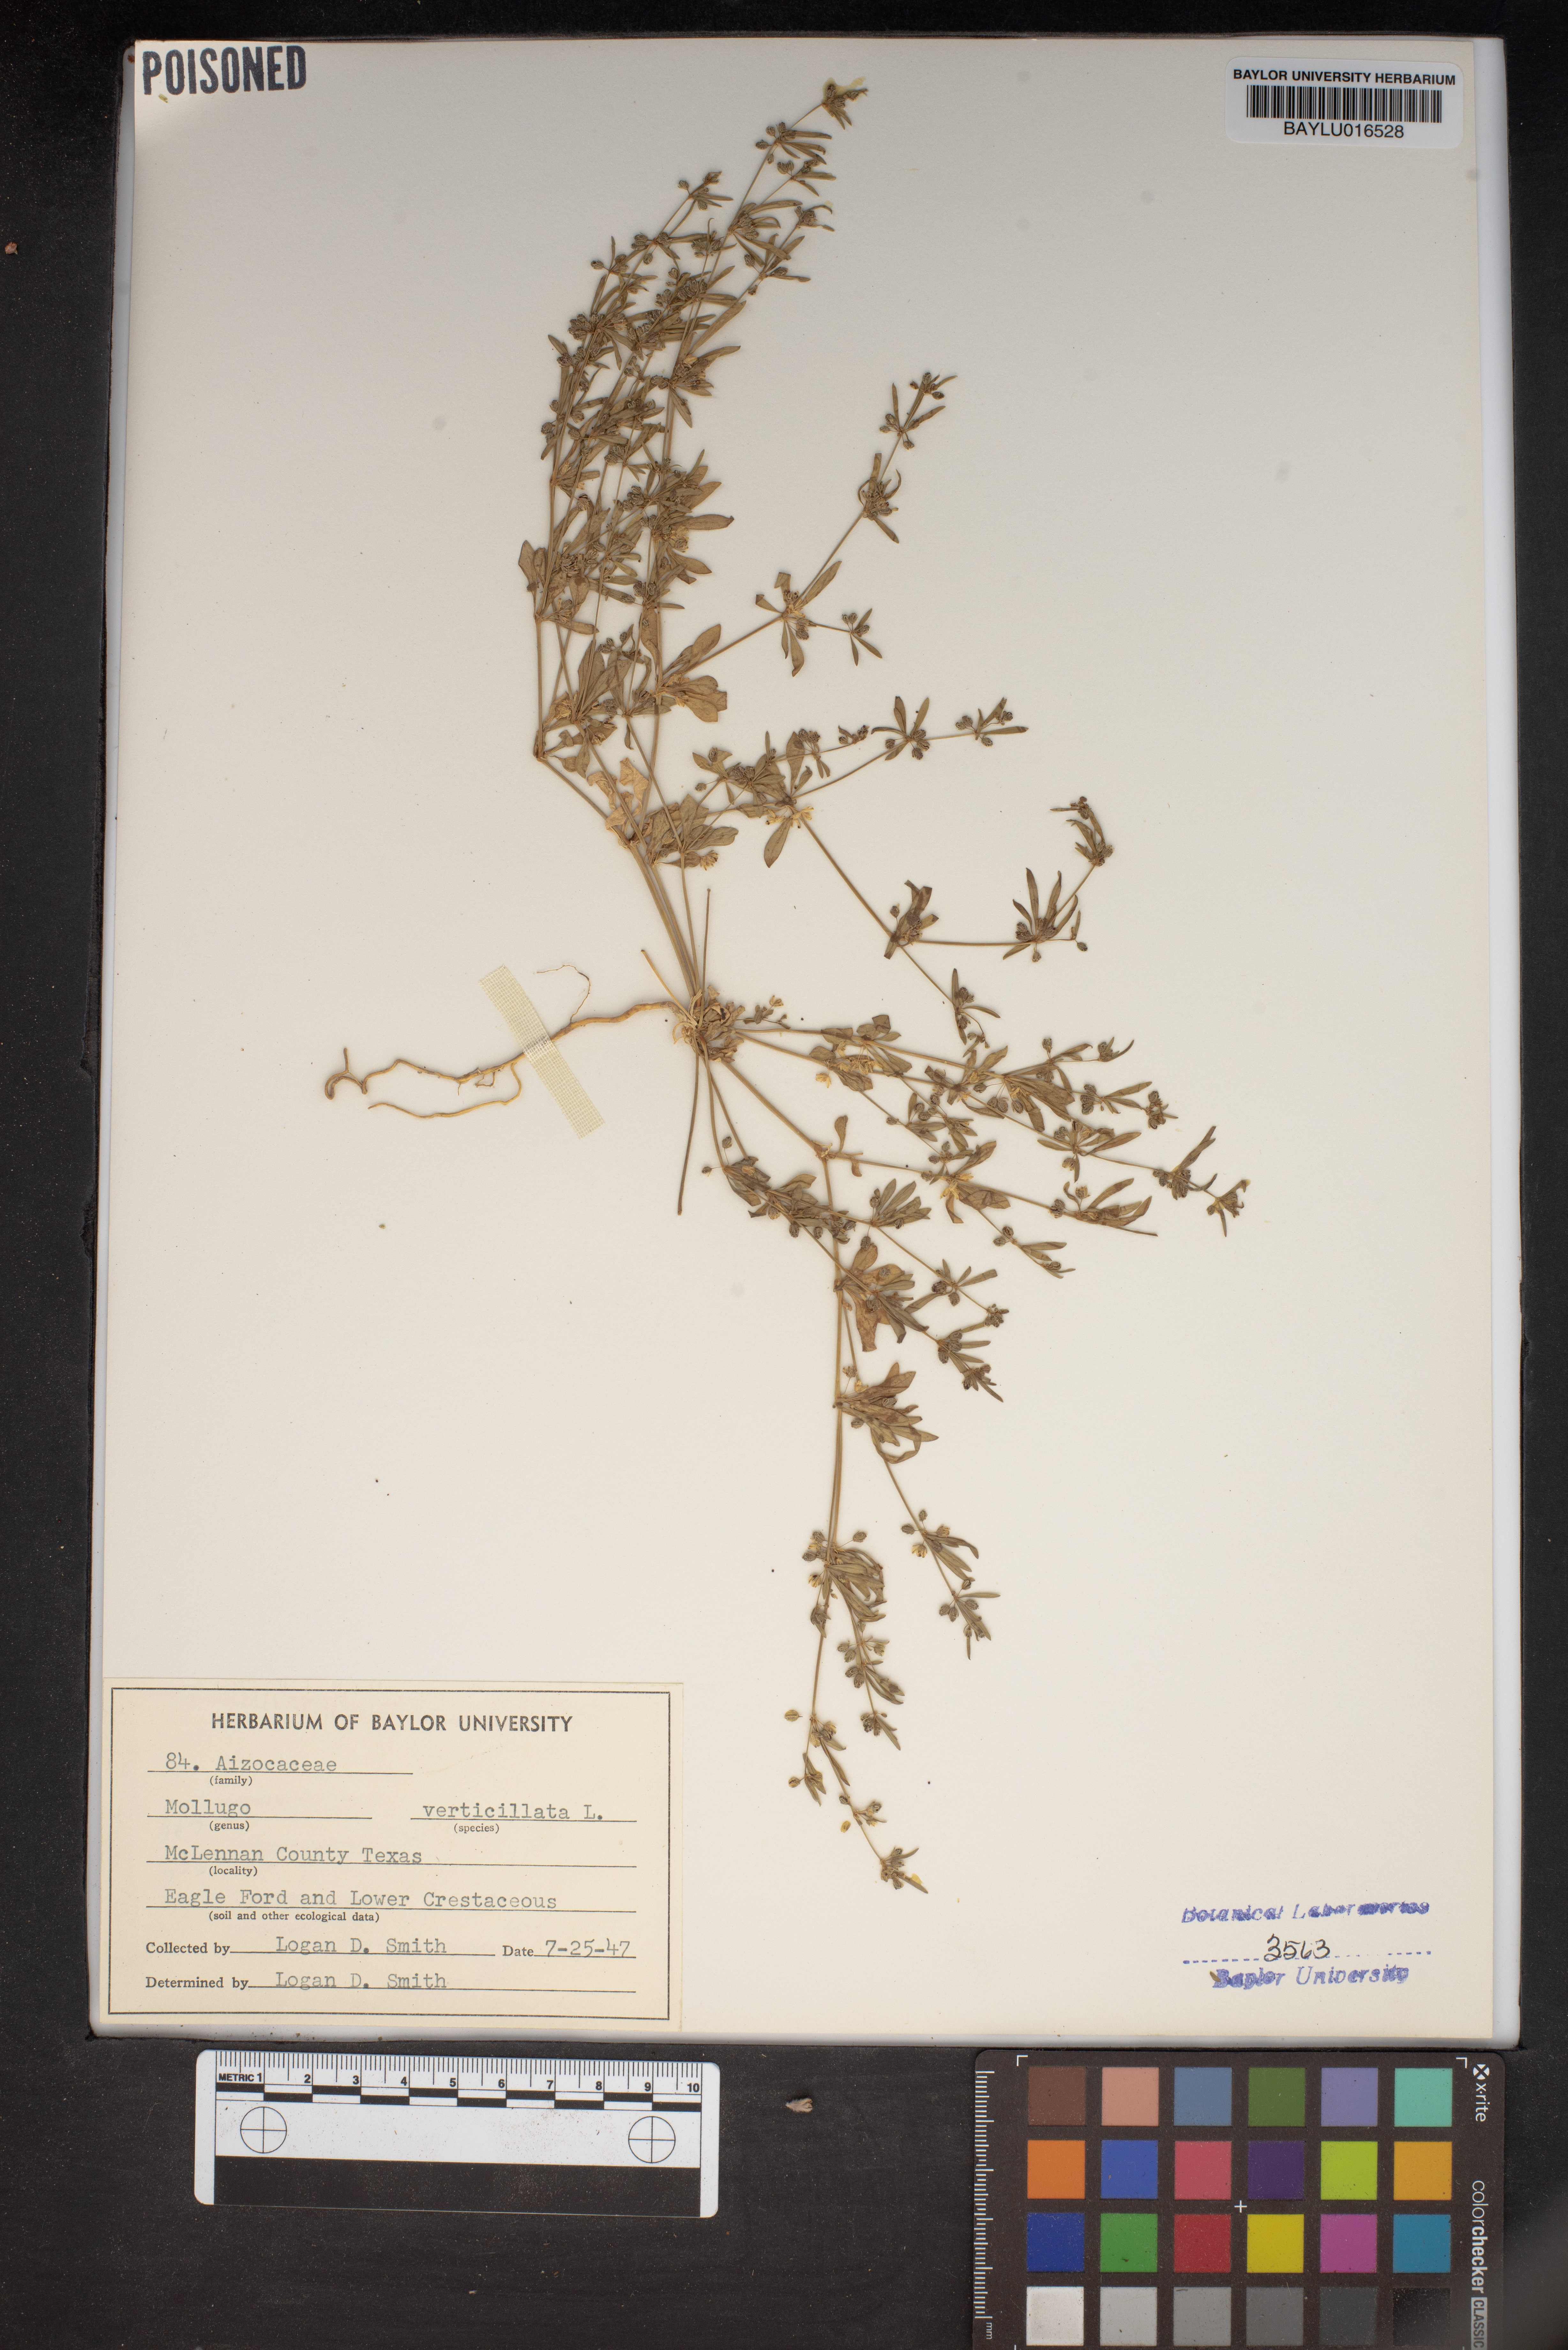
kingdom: Plantae
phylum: Tracheophyta
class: Magnoliopsida
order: Caryophyllales
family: Molluginaceae
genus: Mollugo
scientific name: Mollugo verticillata
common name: Green carpetweed
